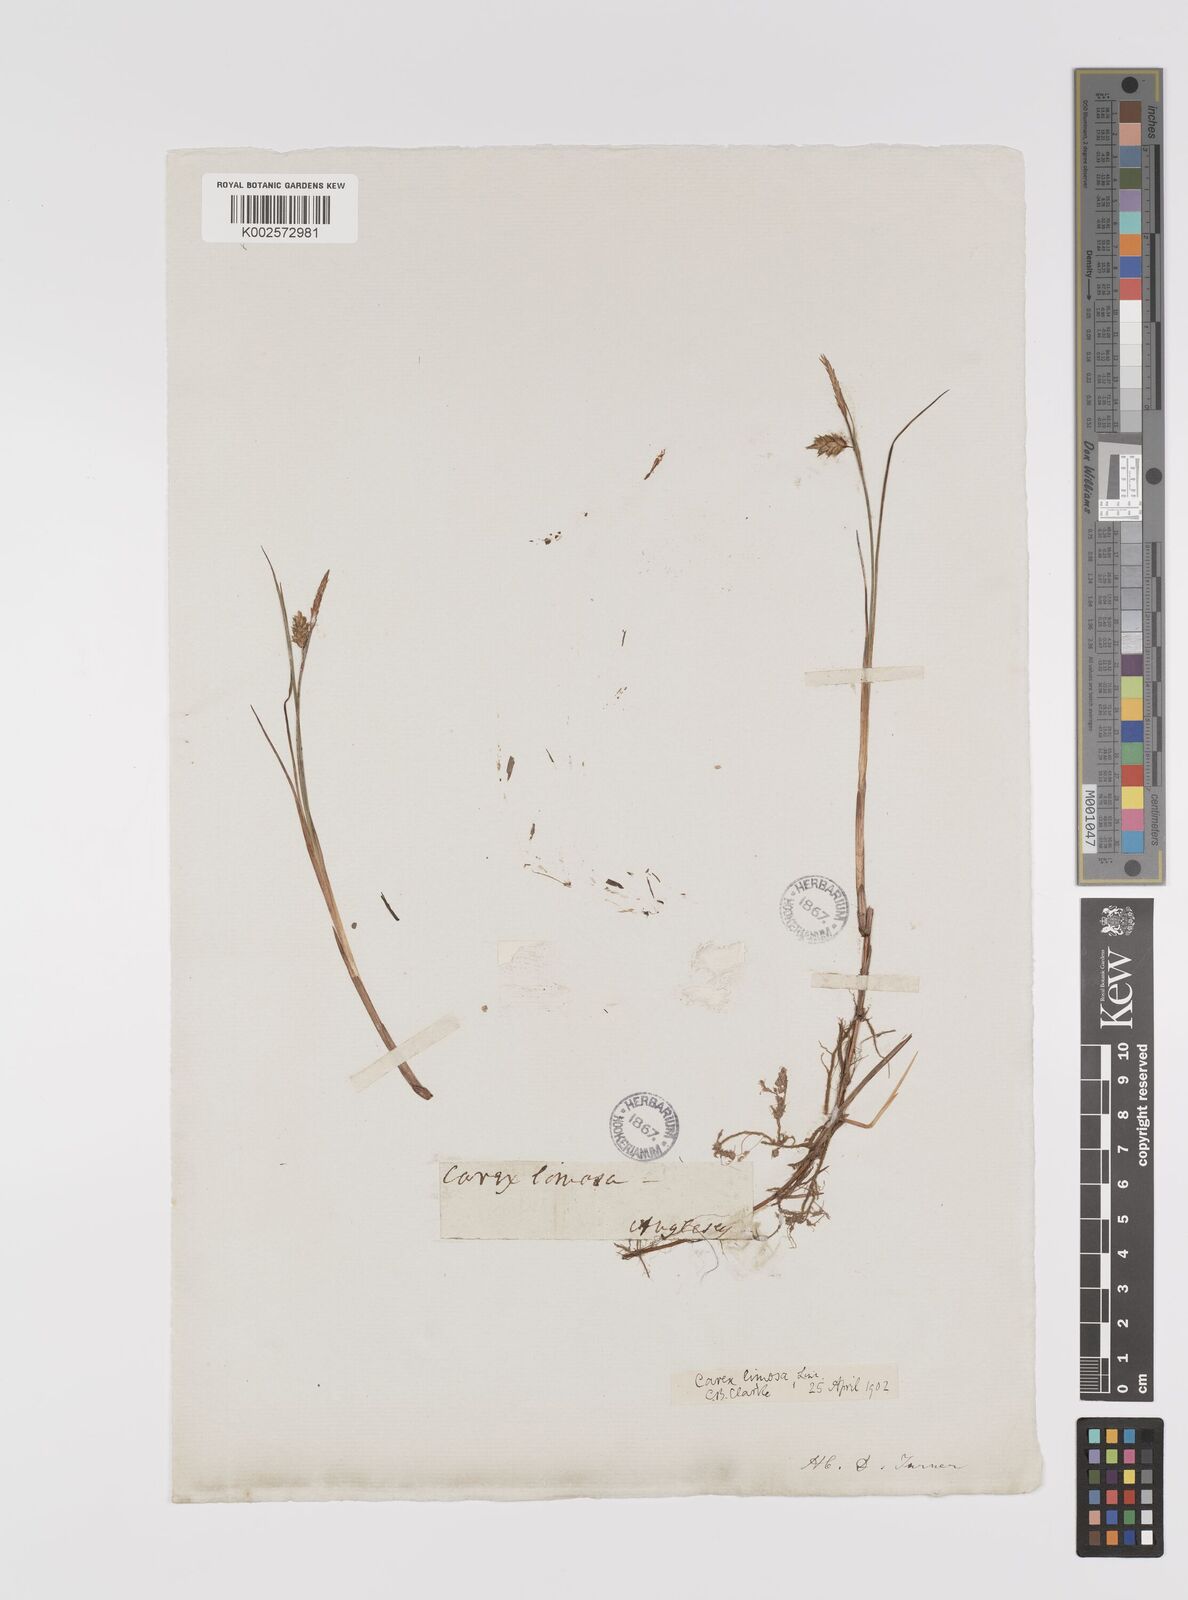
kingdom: Plantae
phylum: Tracheophyta
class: Liliopsida
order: Poales
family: Cyperaceae
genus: Carex
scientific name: Carex limosa
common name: Bog sedge
